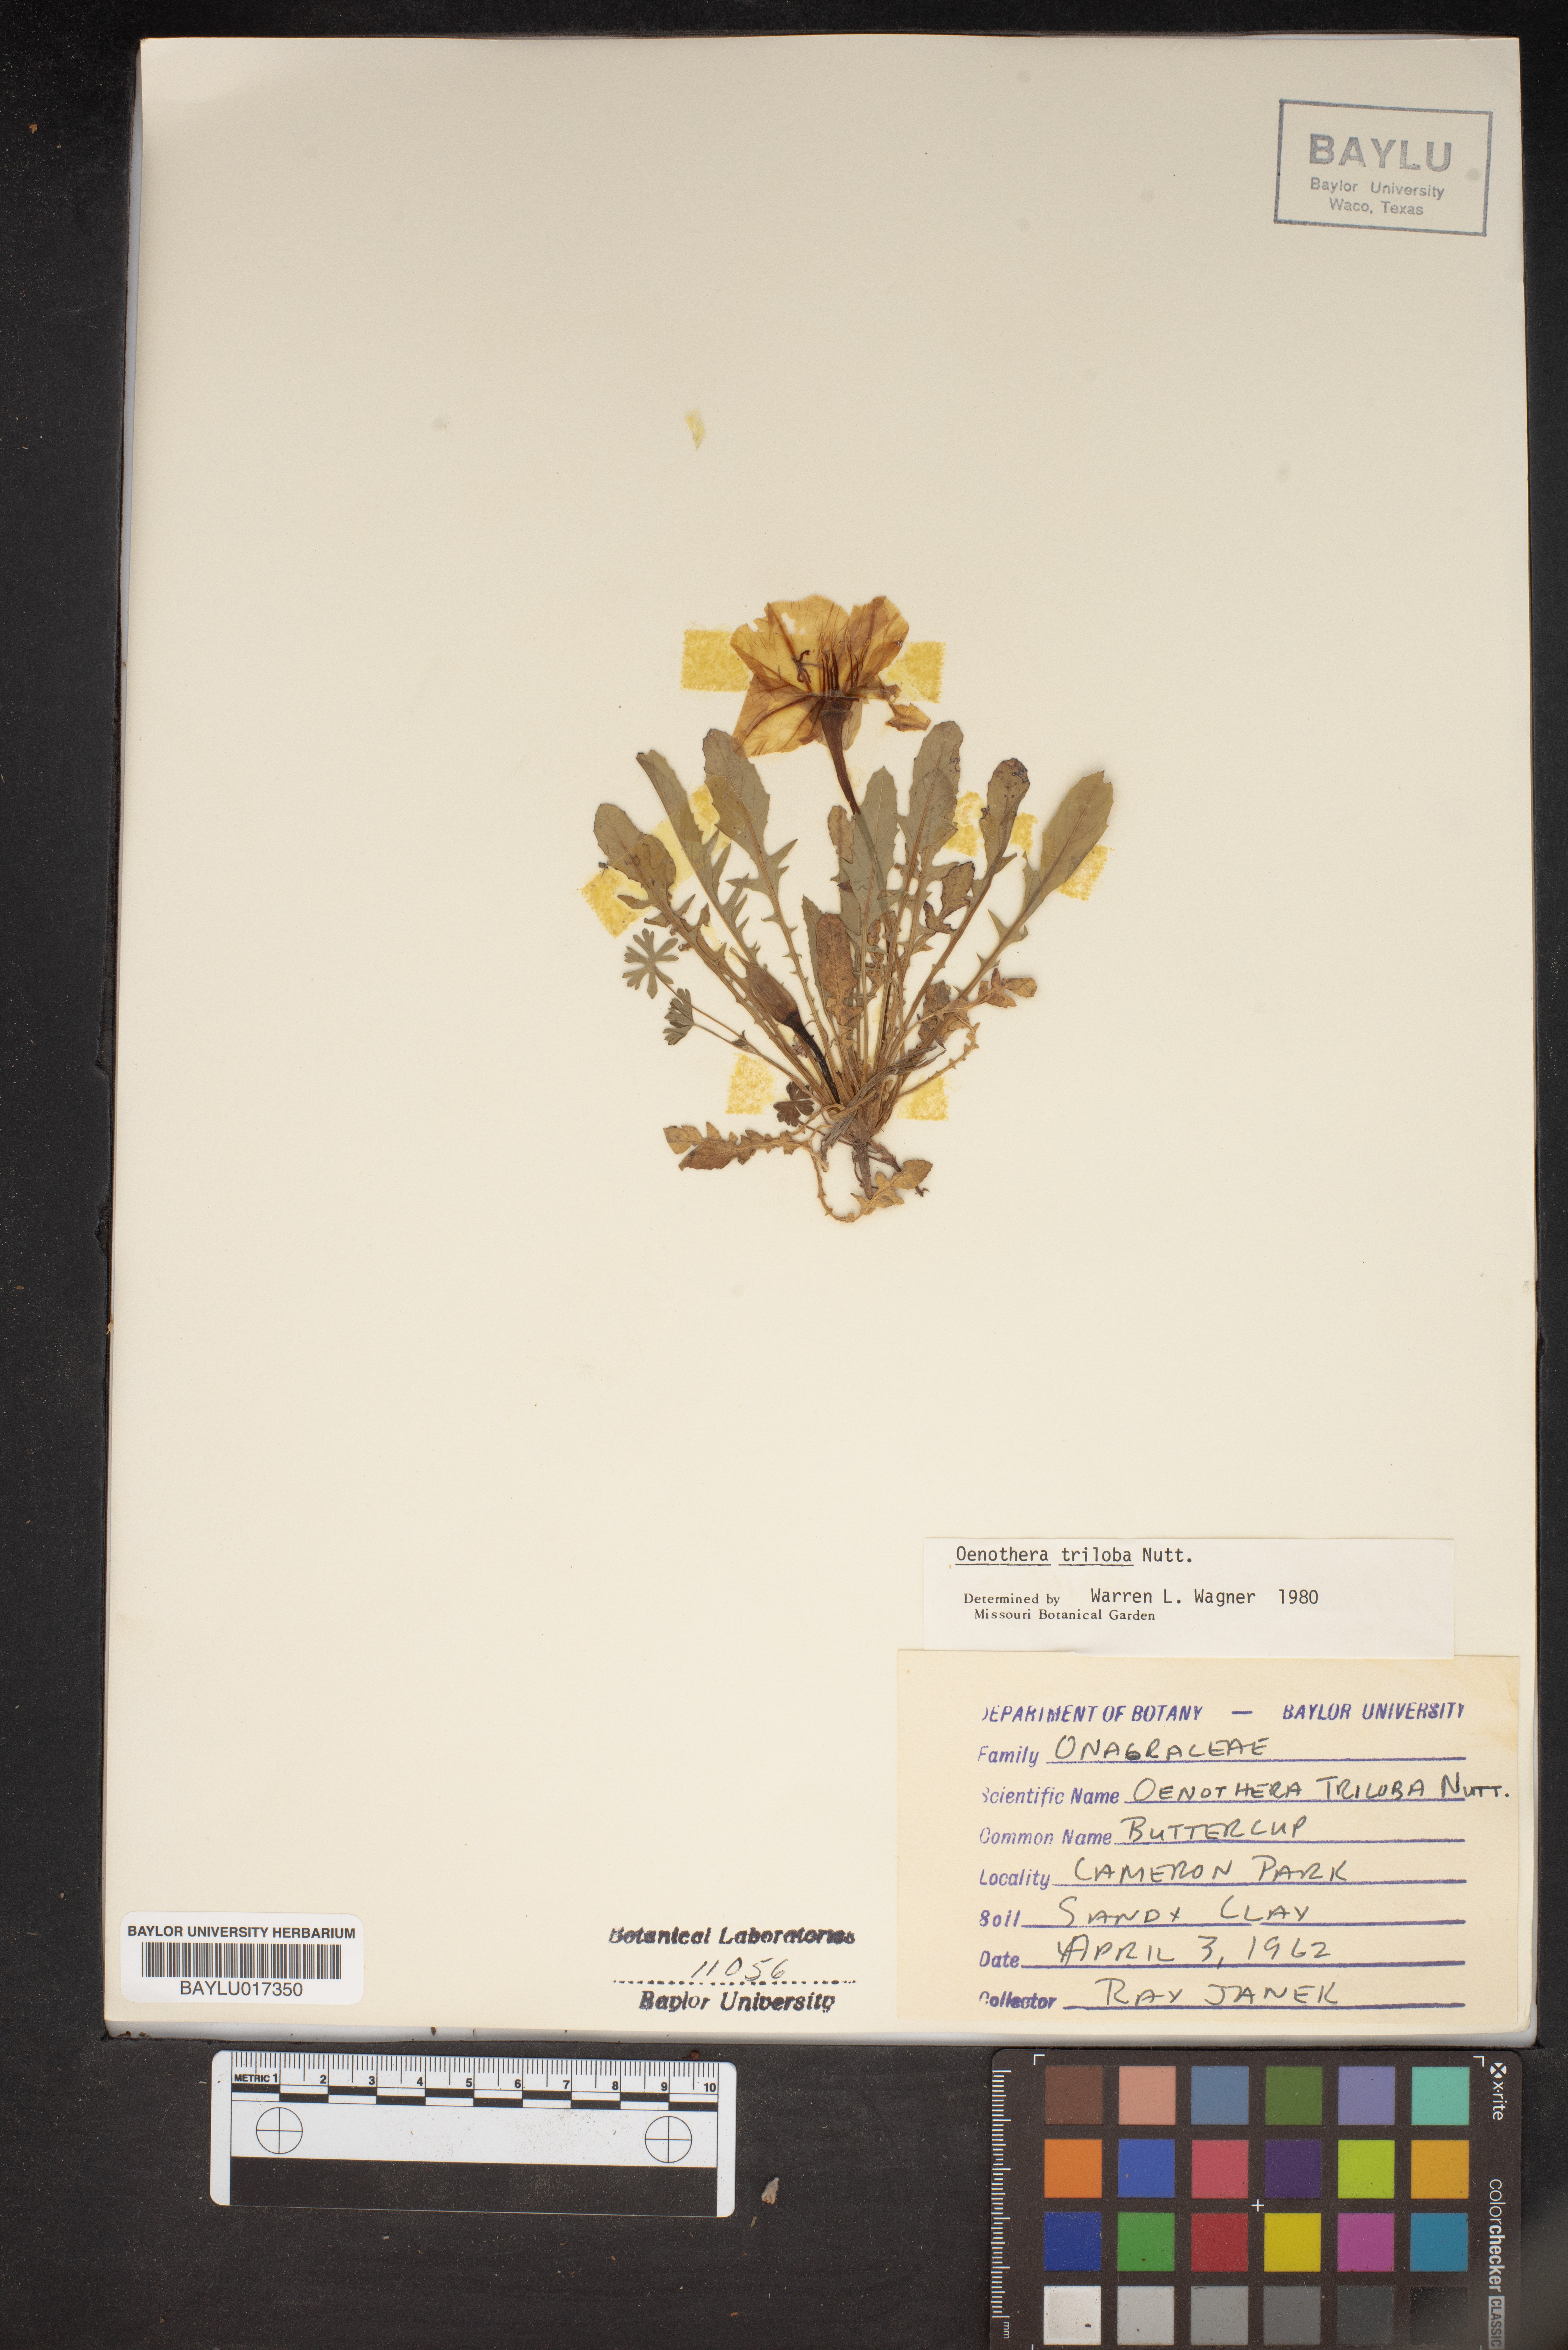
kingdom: Plantae
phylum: Tracheophyta
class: Magnoliopsida
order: Myrtales
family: Onagraceae
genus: Oenothera
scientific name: Oenothera triloba
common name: Sessile evening-primrose
